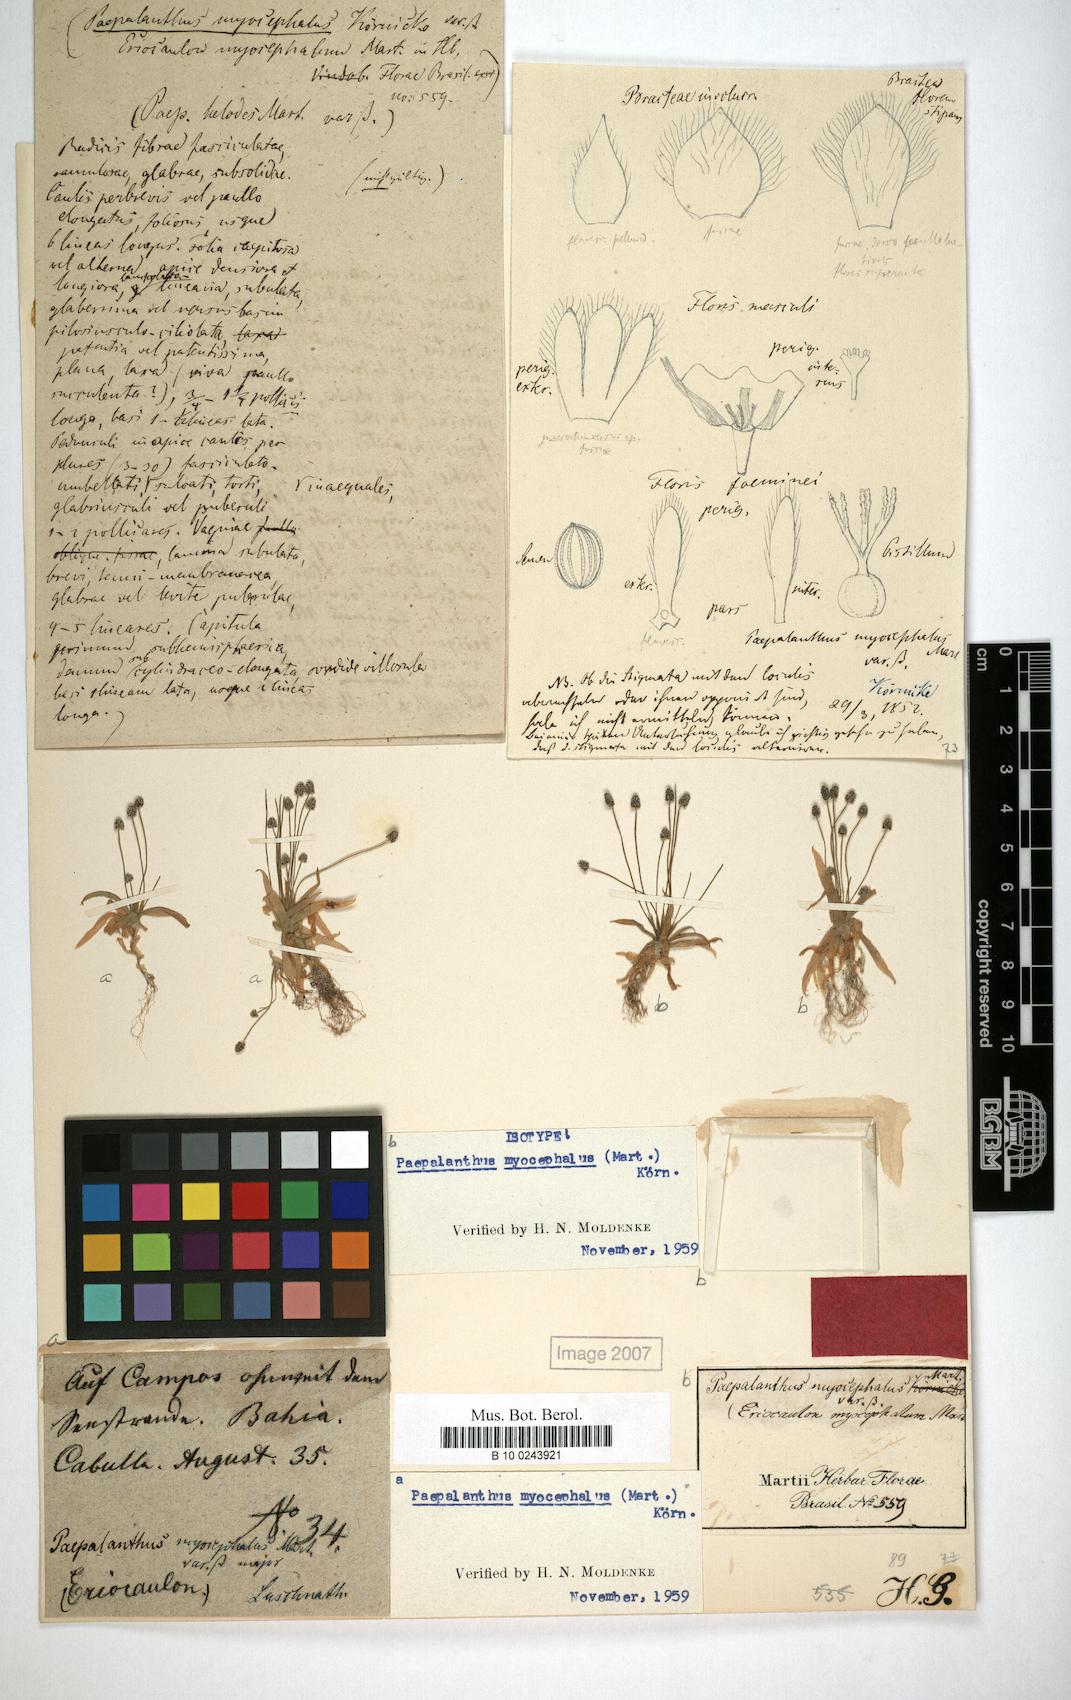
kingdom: Plantae
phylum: Tracheophyta
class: Liliopsida
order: Poales
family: Eriocaulaceae
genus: Paepalanthus
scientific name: Paepalanthus myocephalon
